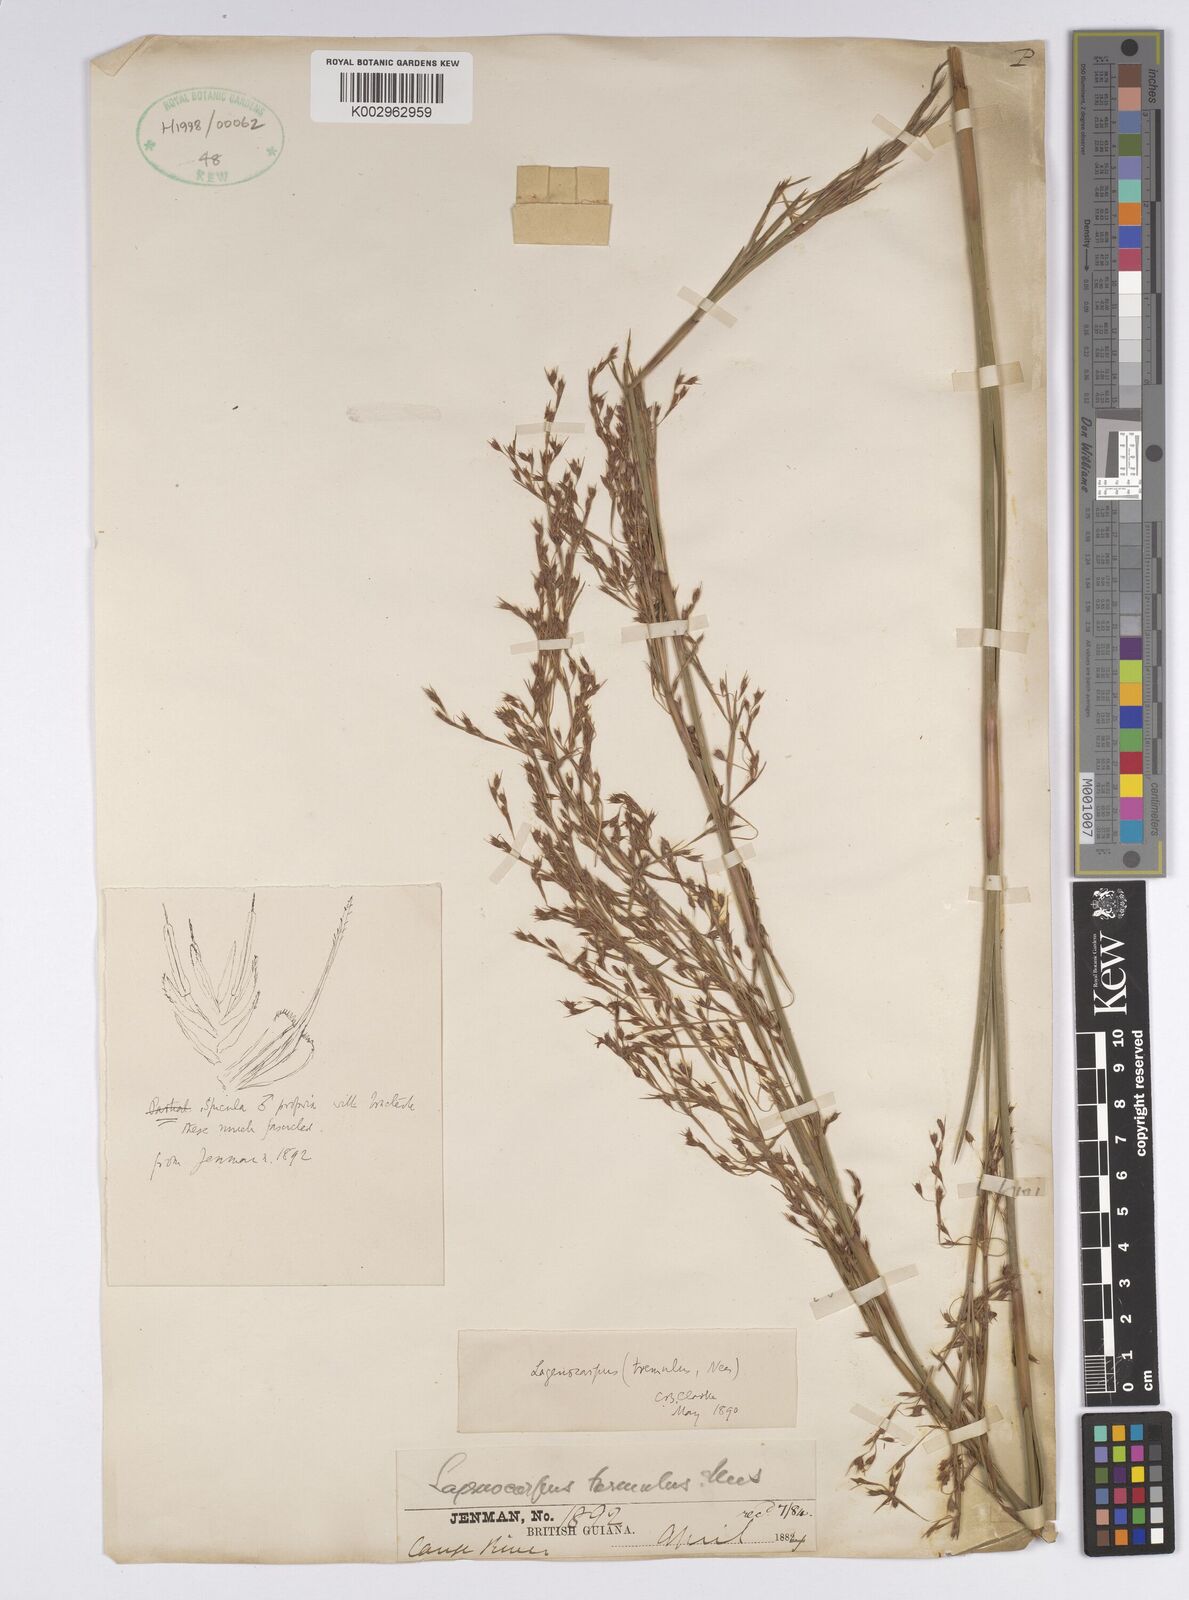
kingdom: Plantae
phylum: Tracheophyta
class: Liliopsida
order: Poales
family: Cyperaceae
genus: Lagenocarpus
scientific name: Lagenocarpus rigidus
